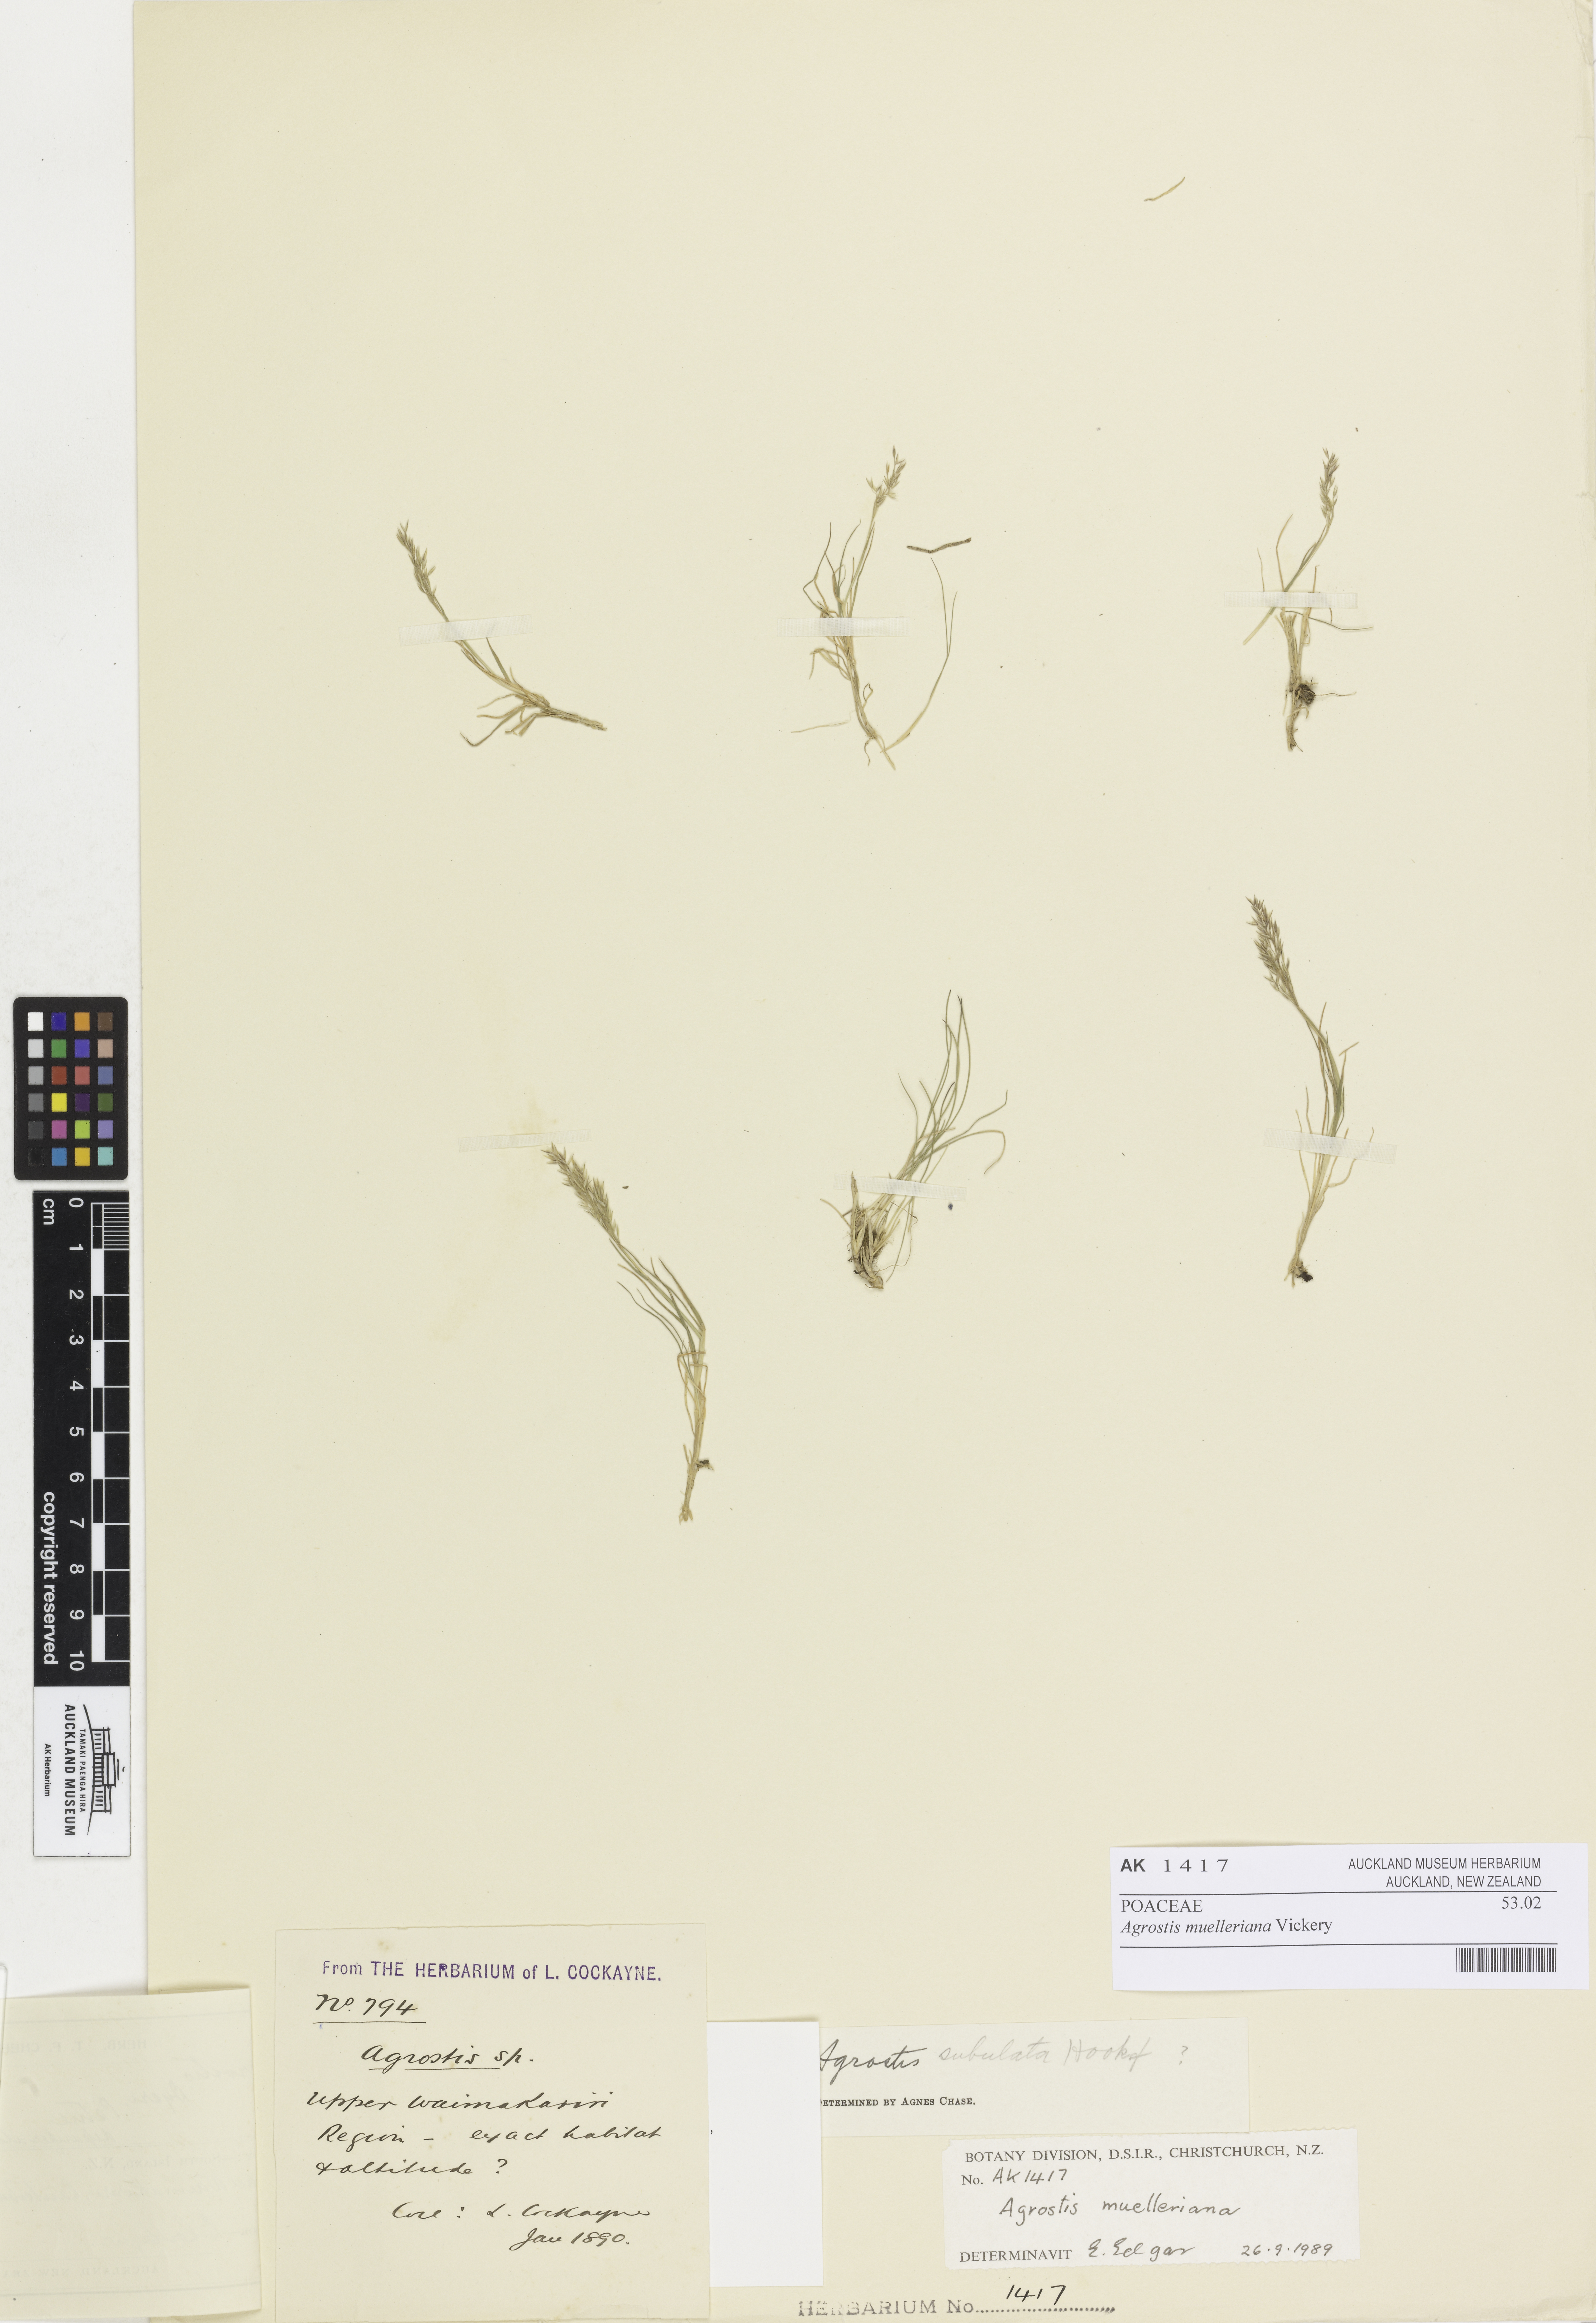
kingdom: Plantae
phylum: Tracheophyta
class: Liliopsida
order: Poales
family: Poaceae
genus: Agrostis
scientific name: Agrostis muelleriana
